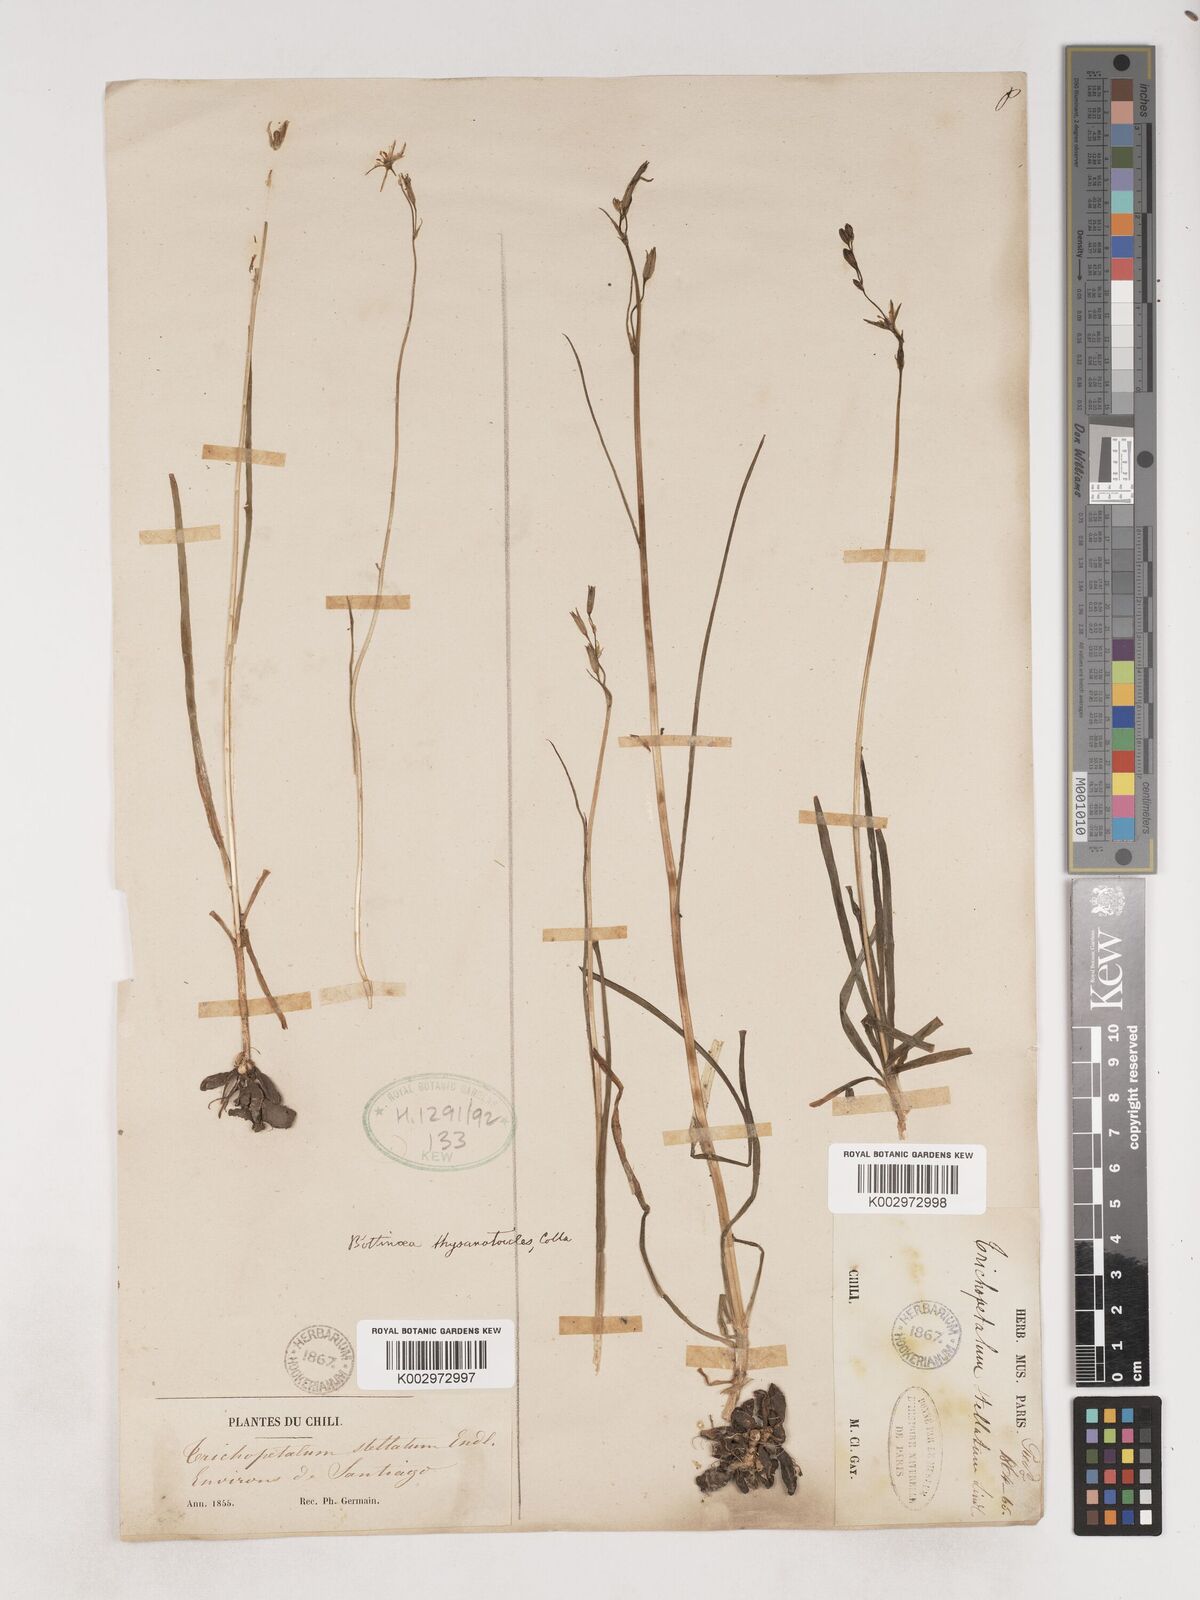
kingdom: Plantae
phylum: Tracheophyta
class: Liliopsida
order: Asparagales
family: Asparagaceae
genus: Trichopetalum
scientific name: Trichopetalum plumosum
